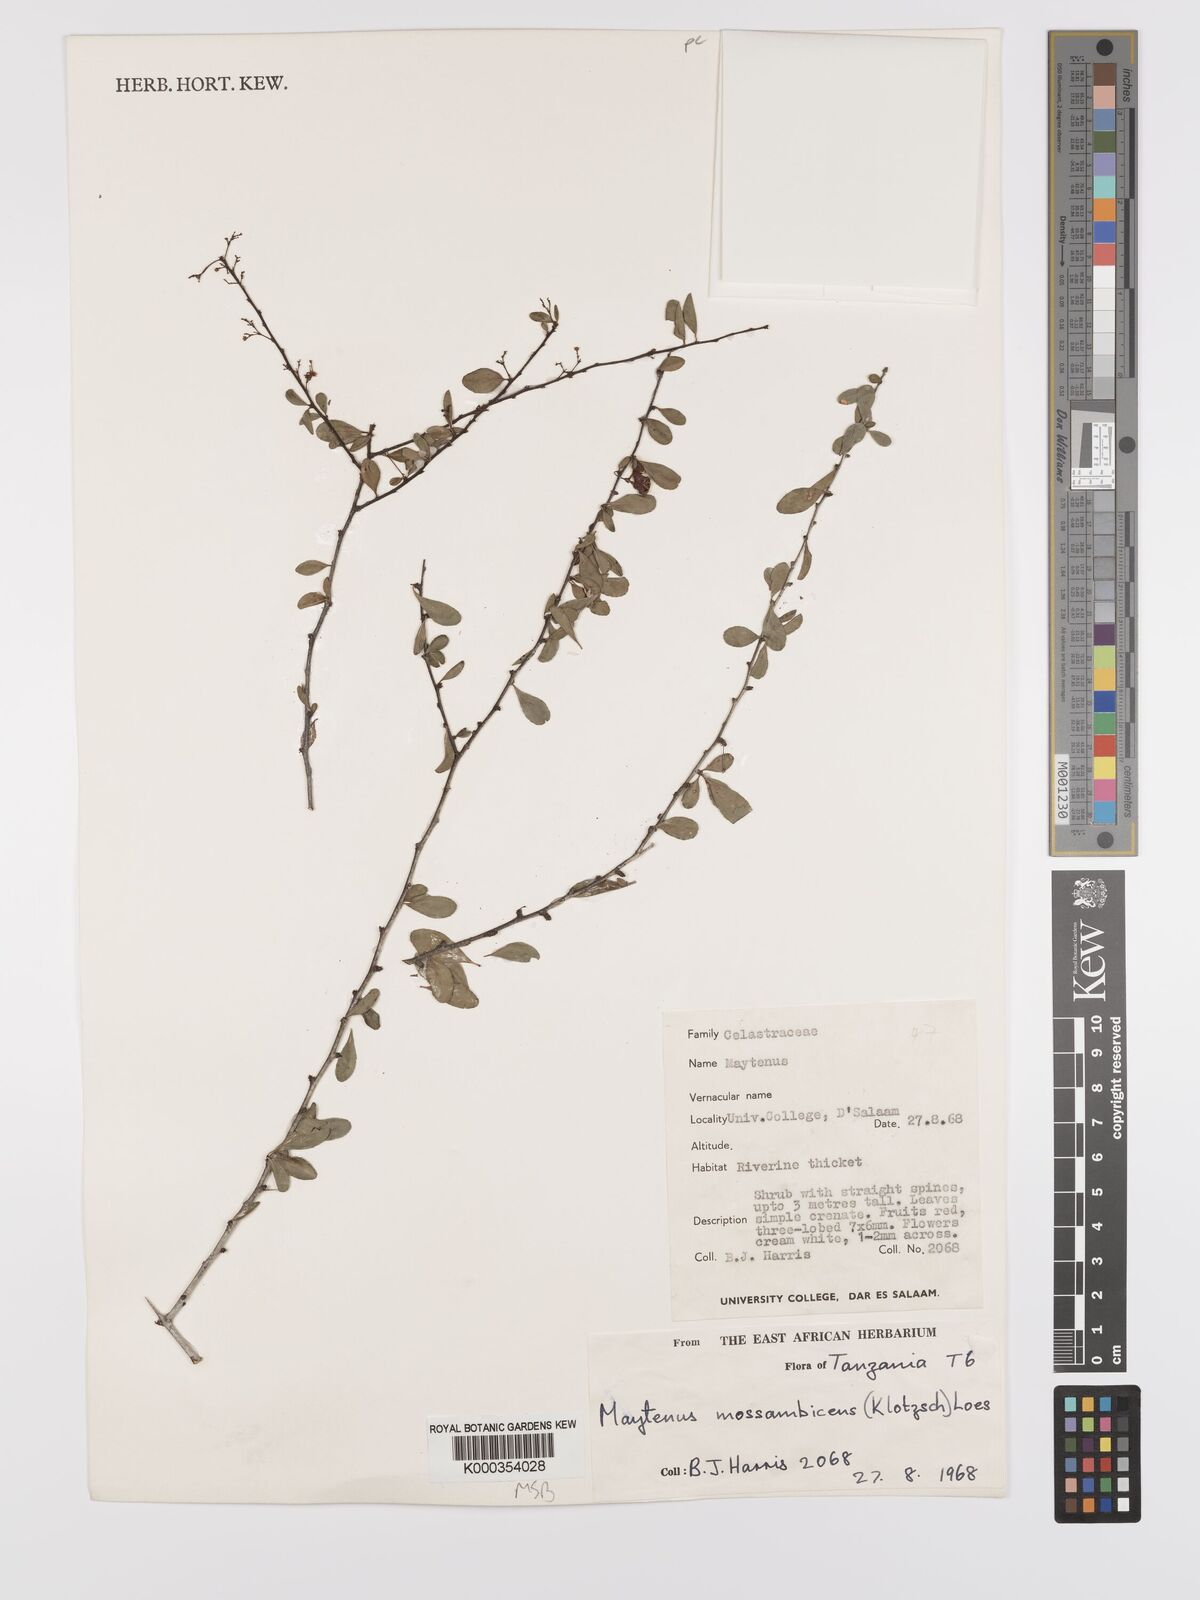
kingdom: Plantae
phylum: Tracheophyta
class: Magnoliopsida
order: Celastrales
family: Celastraceae
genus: Gymnosporia
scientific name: Gymnosporia mossambicensis
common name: Black forest spike-thorn
